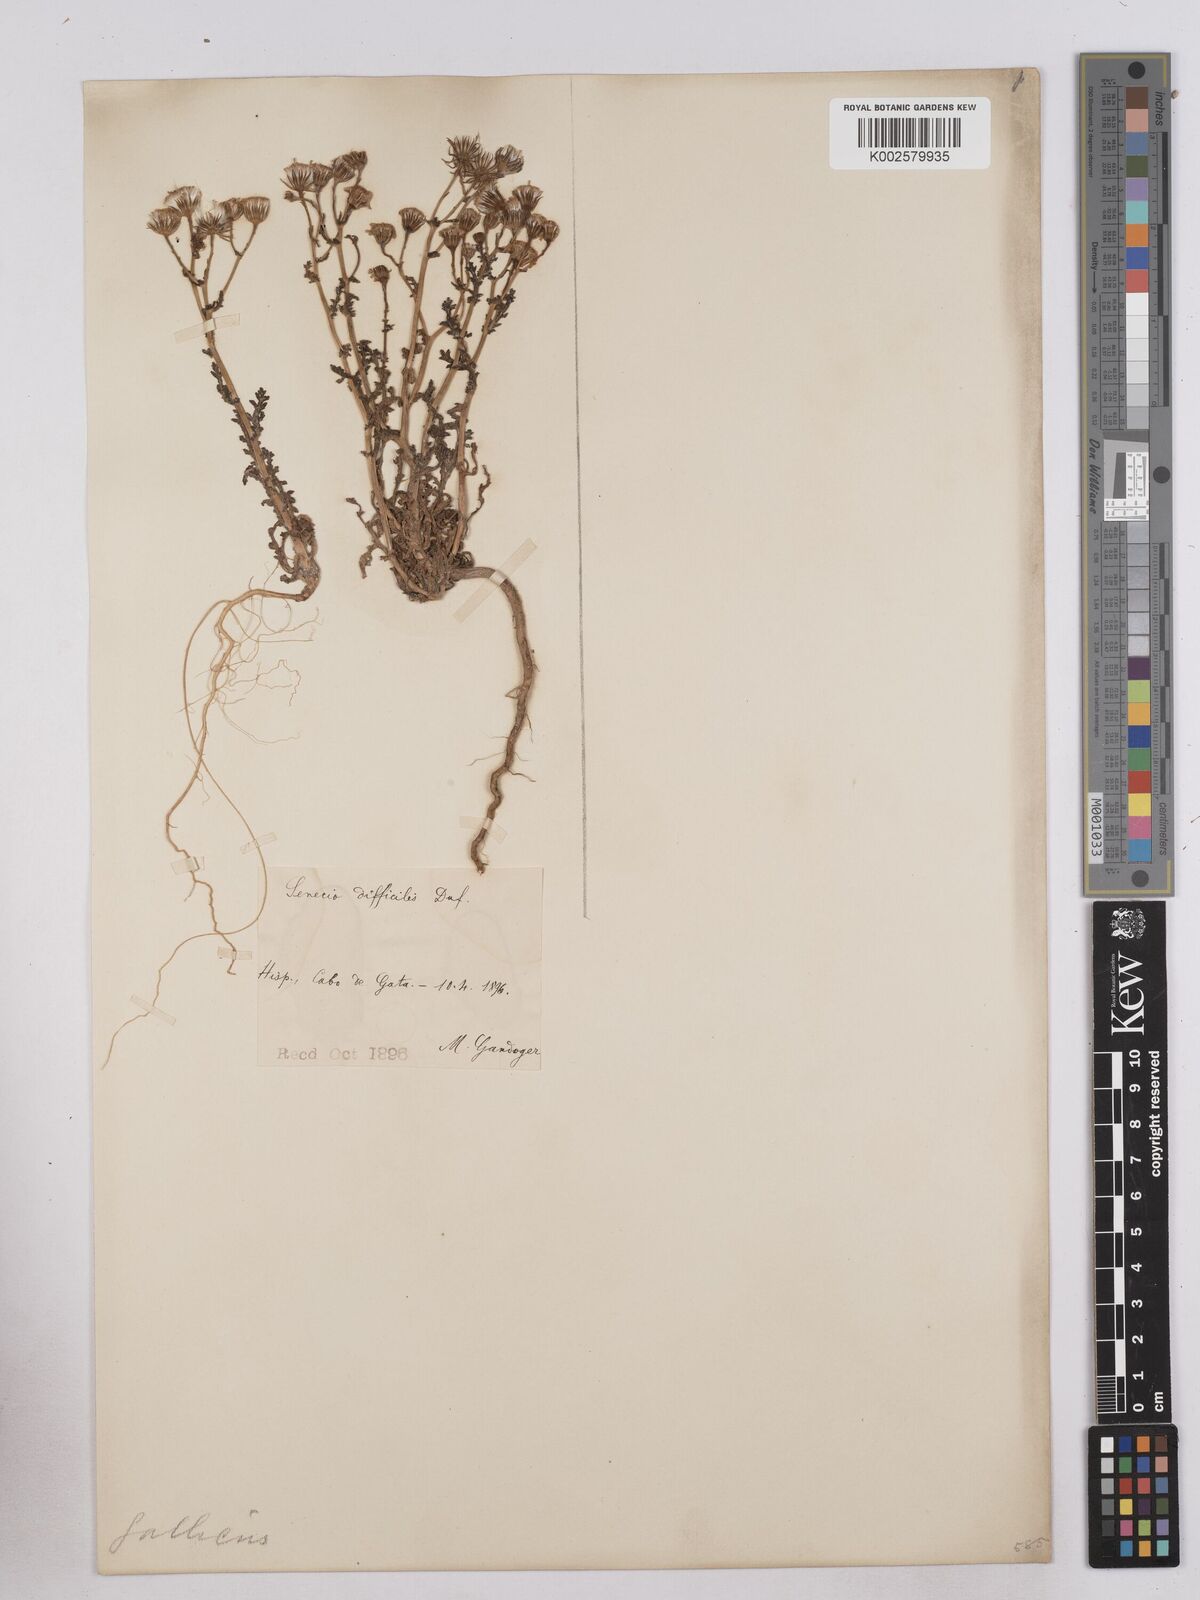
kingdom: Plantae
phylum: Tracheophyta
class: Magnoliopsida
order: Asterales
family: Asteraceae
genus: Senecio
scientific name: Senecio gallicus
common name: French groundsel
